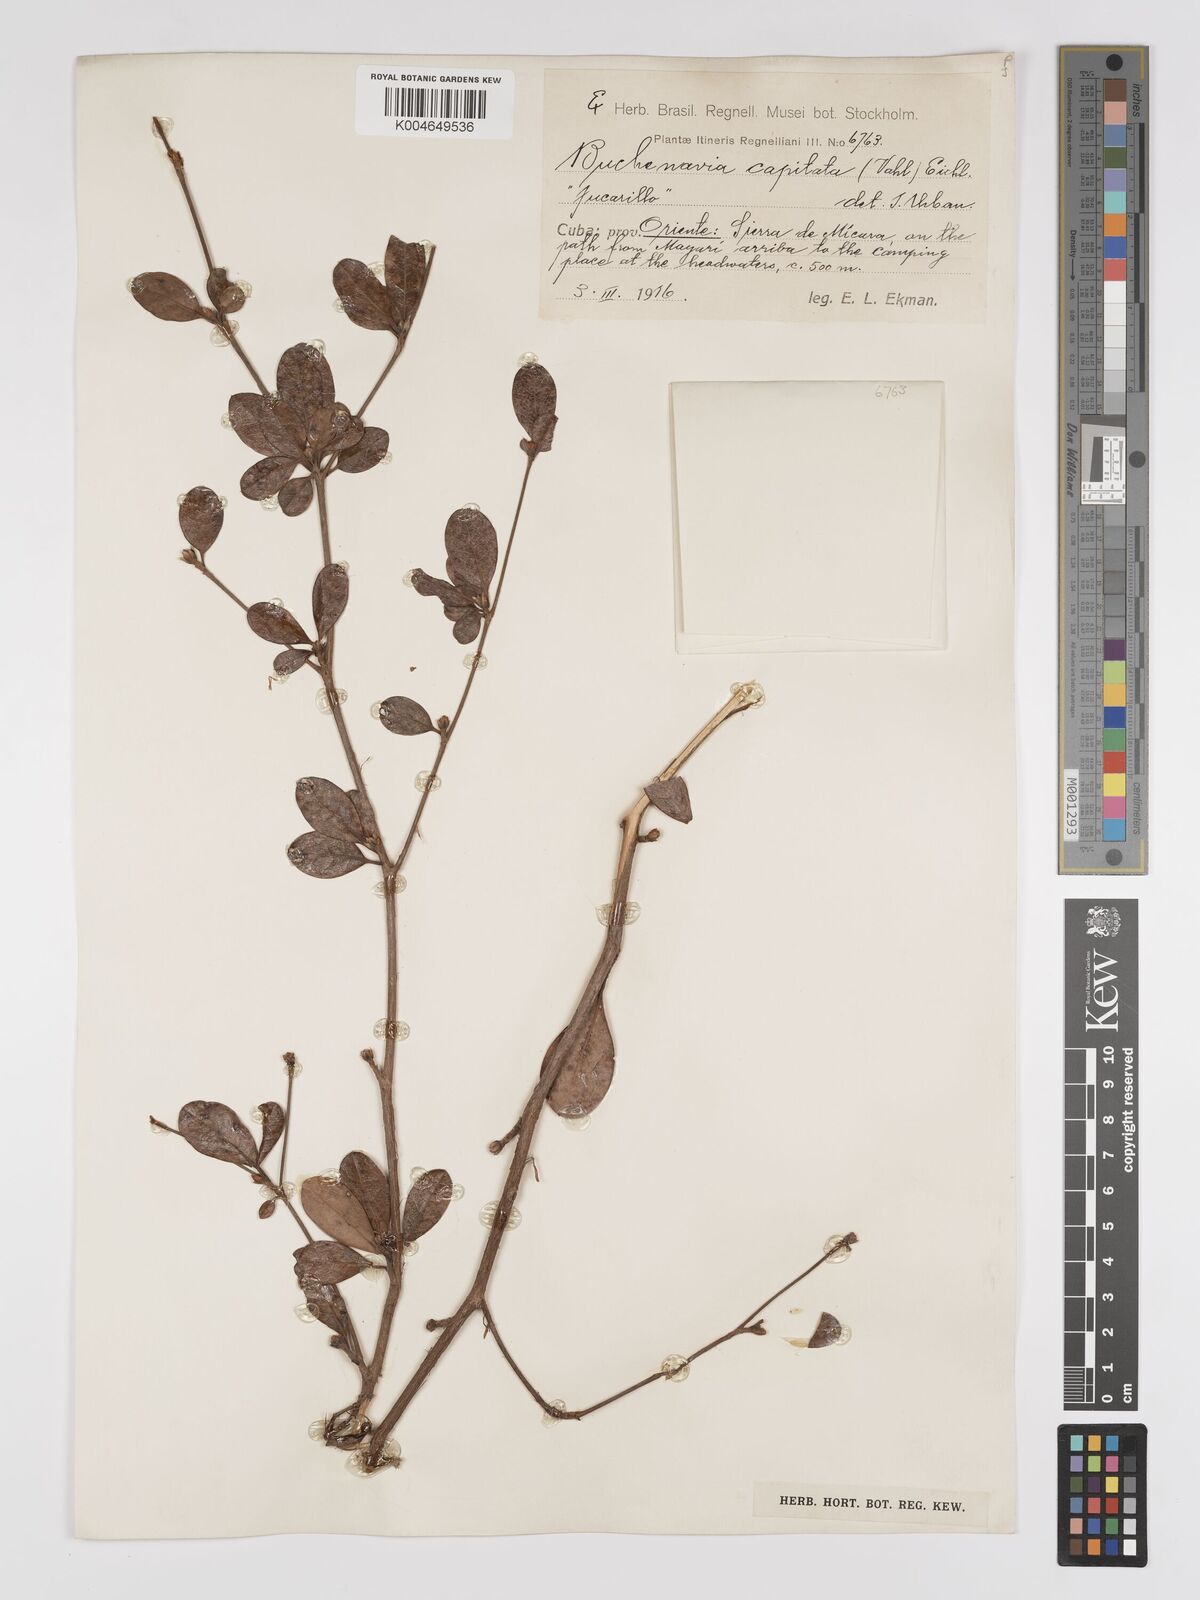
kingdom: Plantae
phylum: Tracheophyta
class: Magnoliopsida
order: Myrtales
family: Combretaceae
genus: Terminalia
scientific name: Terminalia tetraphylla
